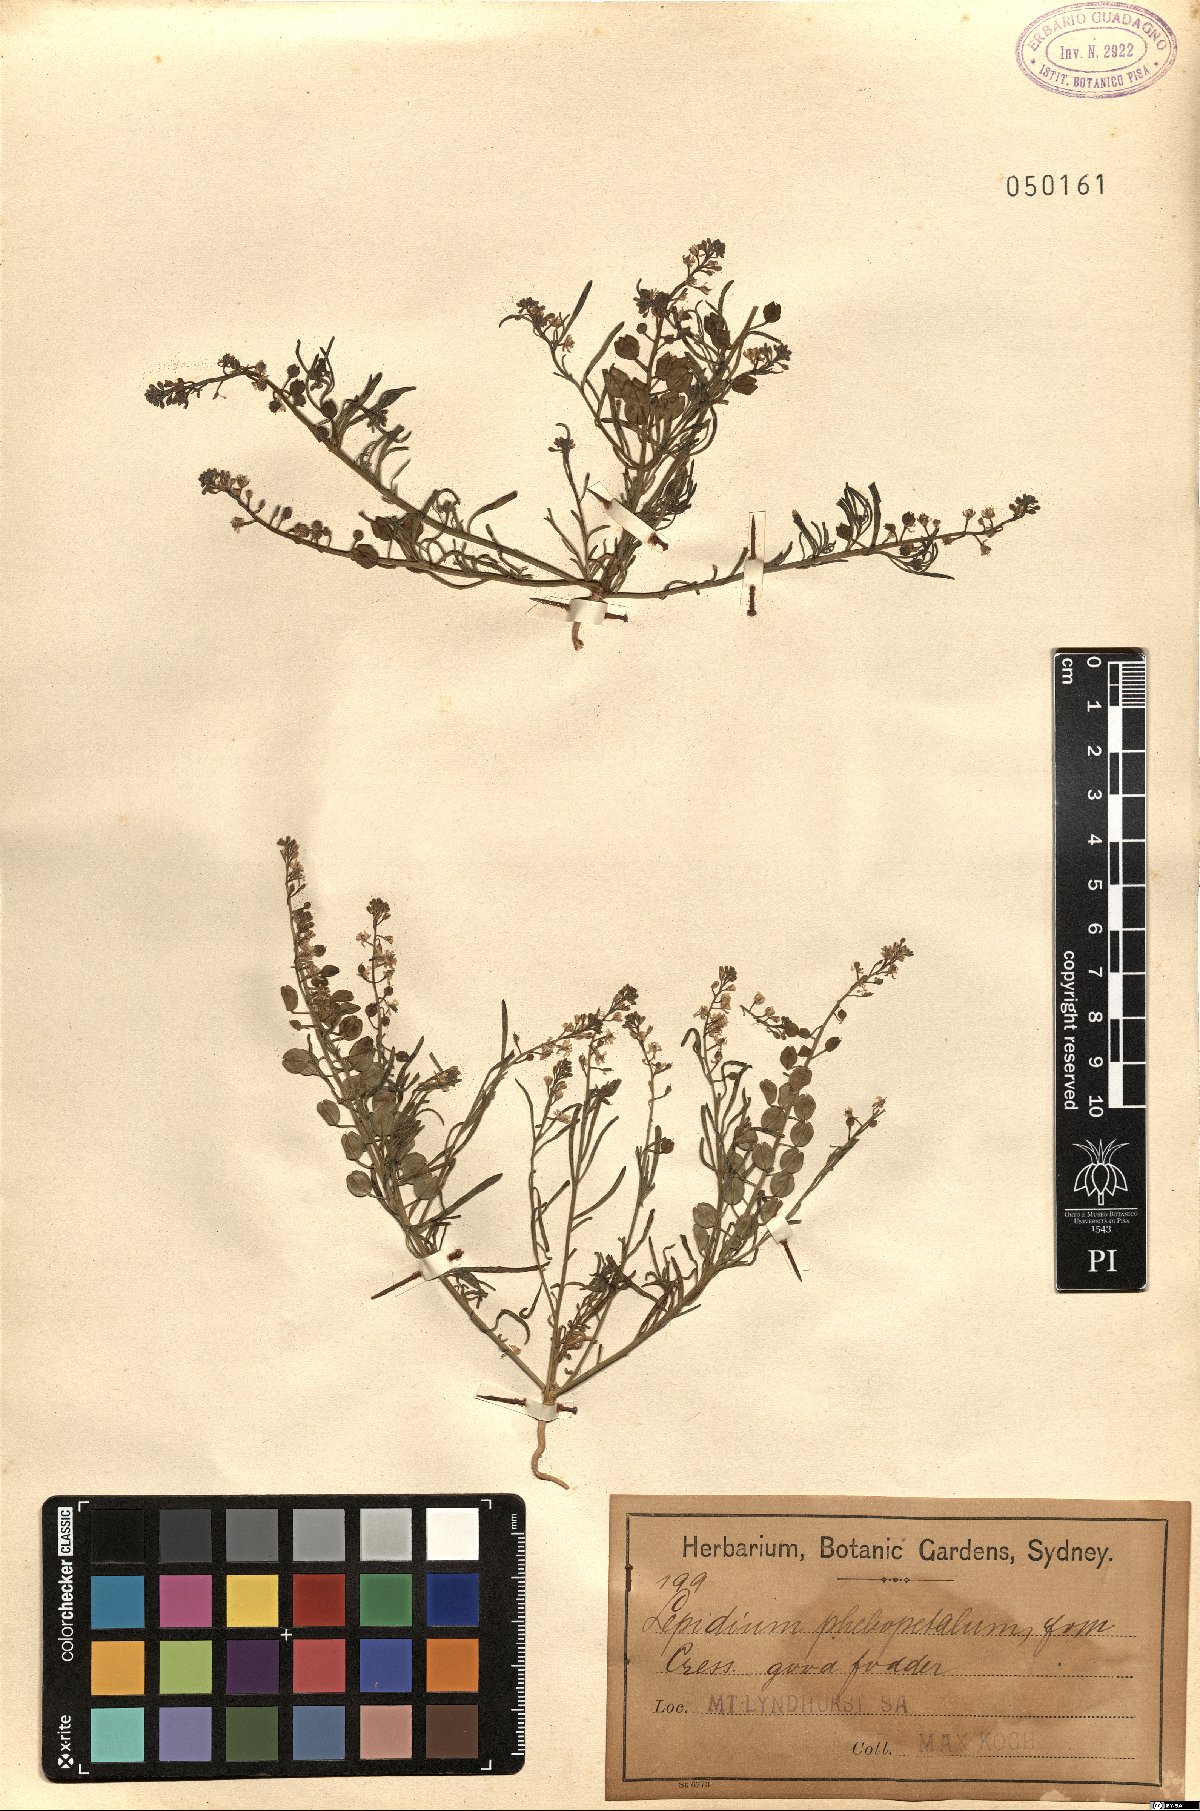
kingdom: Plantae
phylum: Tracheophyta
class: Magnoliopsida
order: Brassicales
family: Brassicaceae
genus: Lepidium
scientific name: Lepidium phlebopetalum
